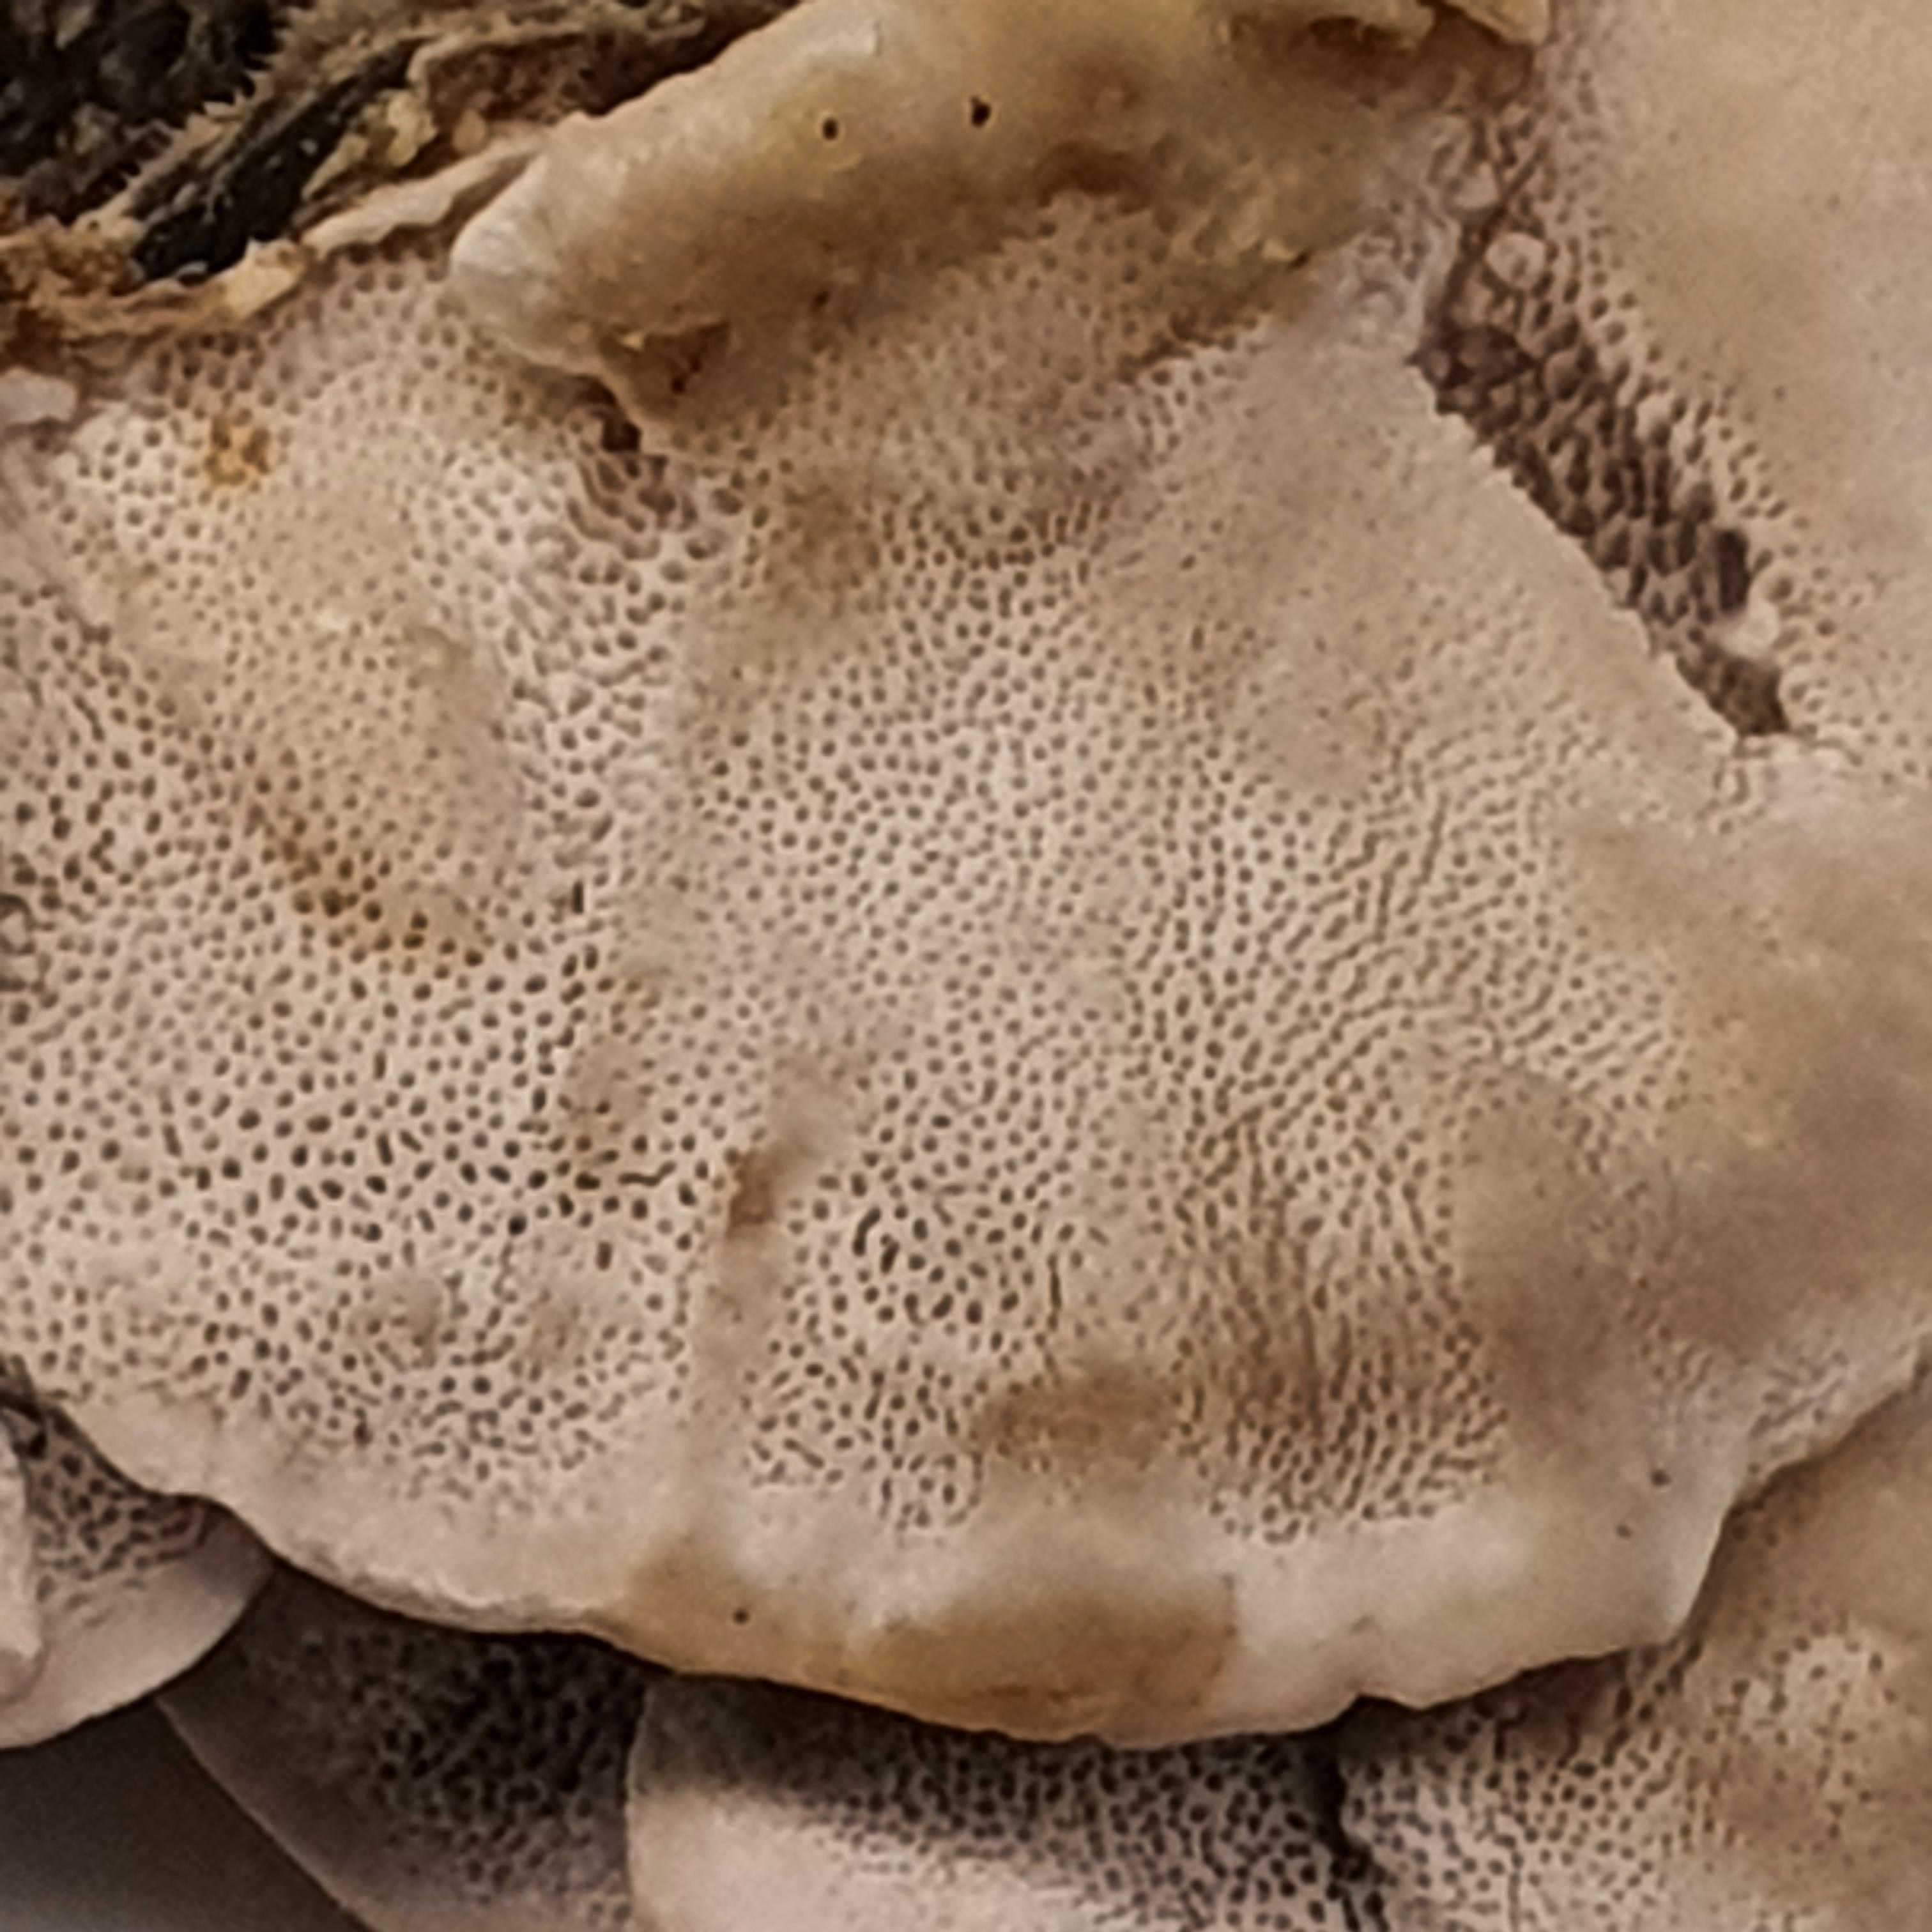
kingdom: Fungi
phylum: Basidiomycota
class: Agaricomycetes
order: Polyporales
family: Polyporaceae
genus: Trametes
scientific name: Trametes versicolor
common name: broget læderporesvamp
